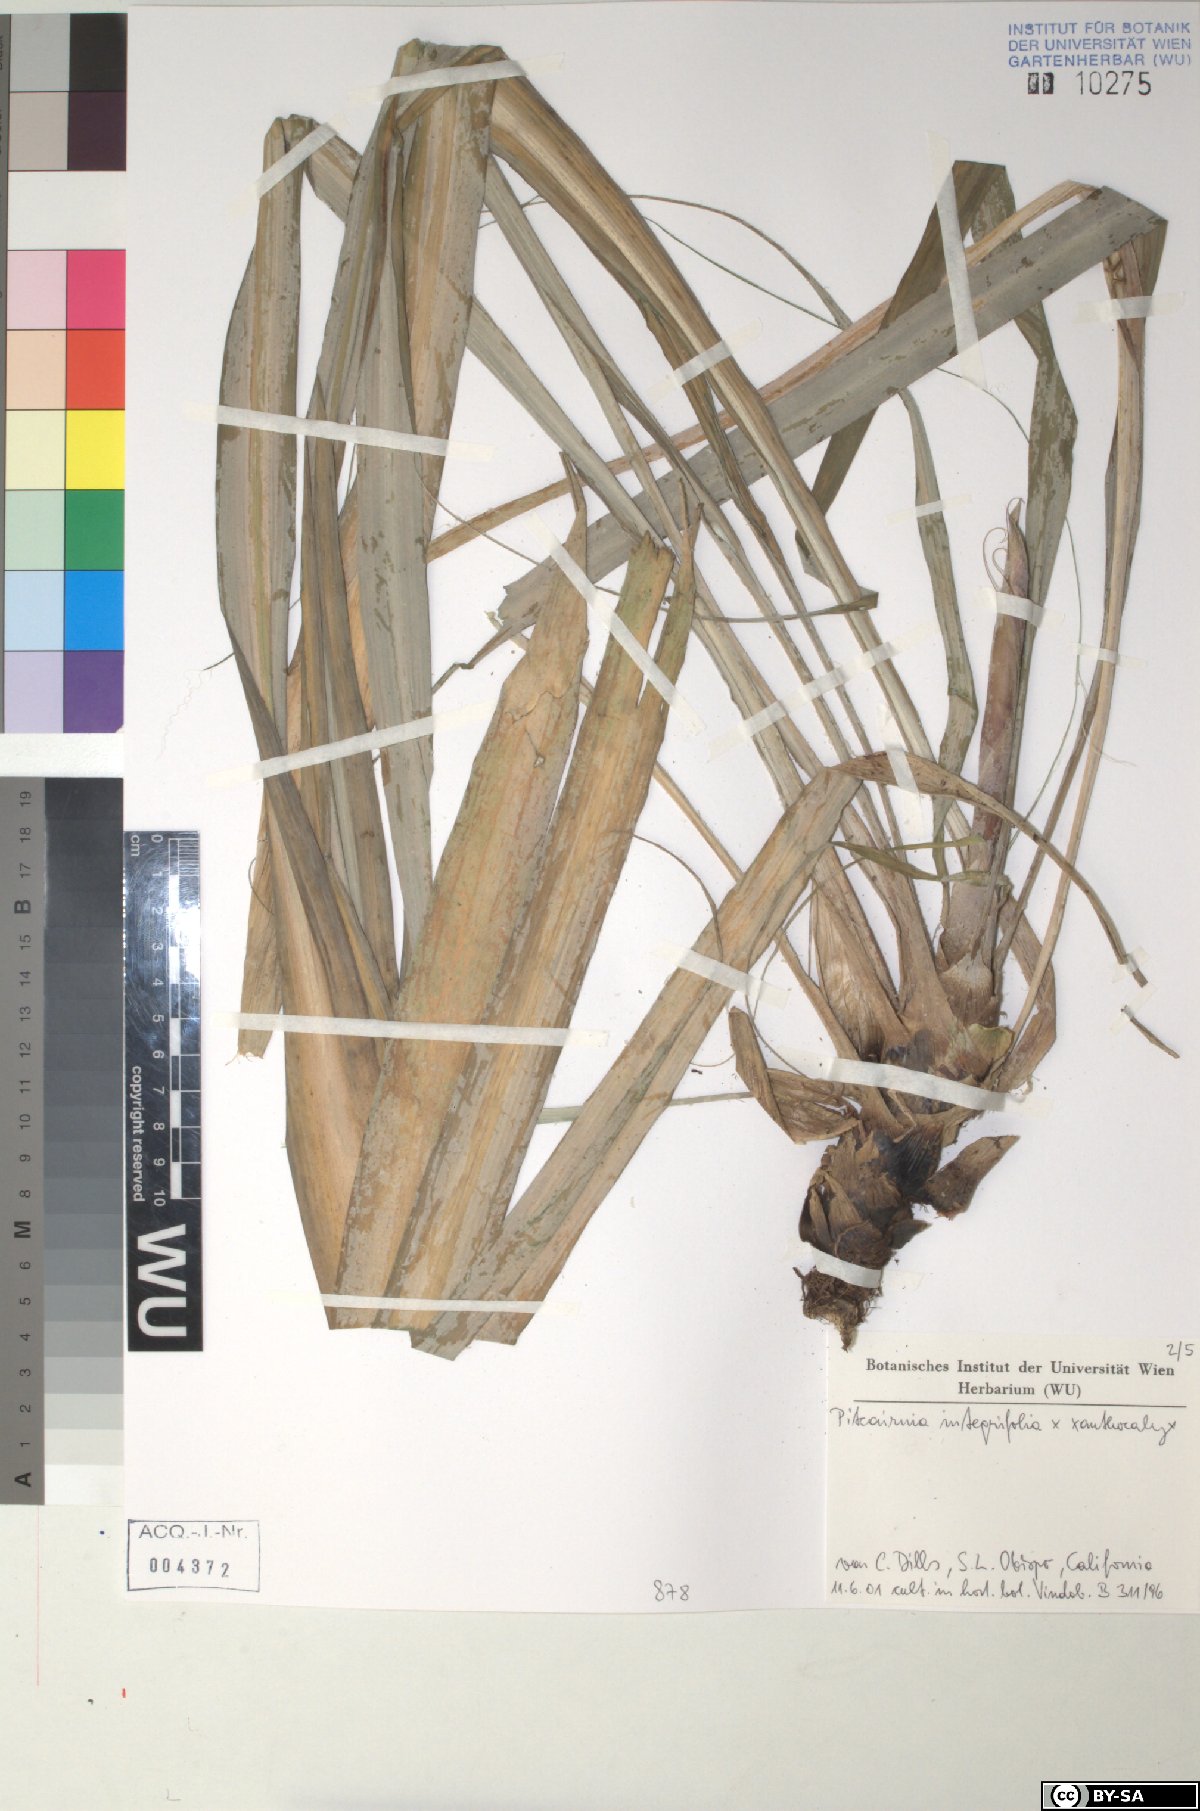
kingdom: Plantae
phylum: Tracheophyta
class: Liliopsida
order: Poales
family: Bromeliaceae
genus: Pitcairnia
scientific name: Pitcairnia integrifolia
